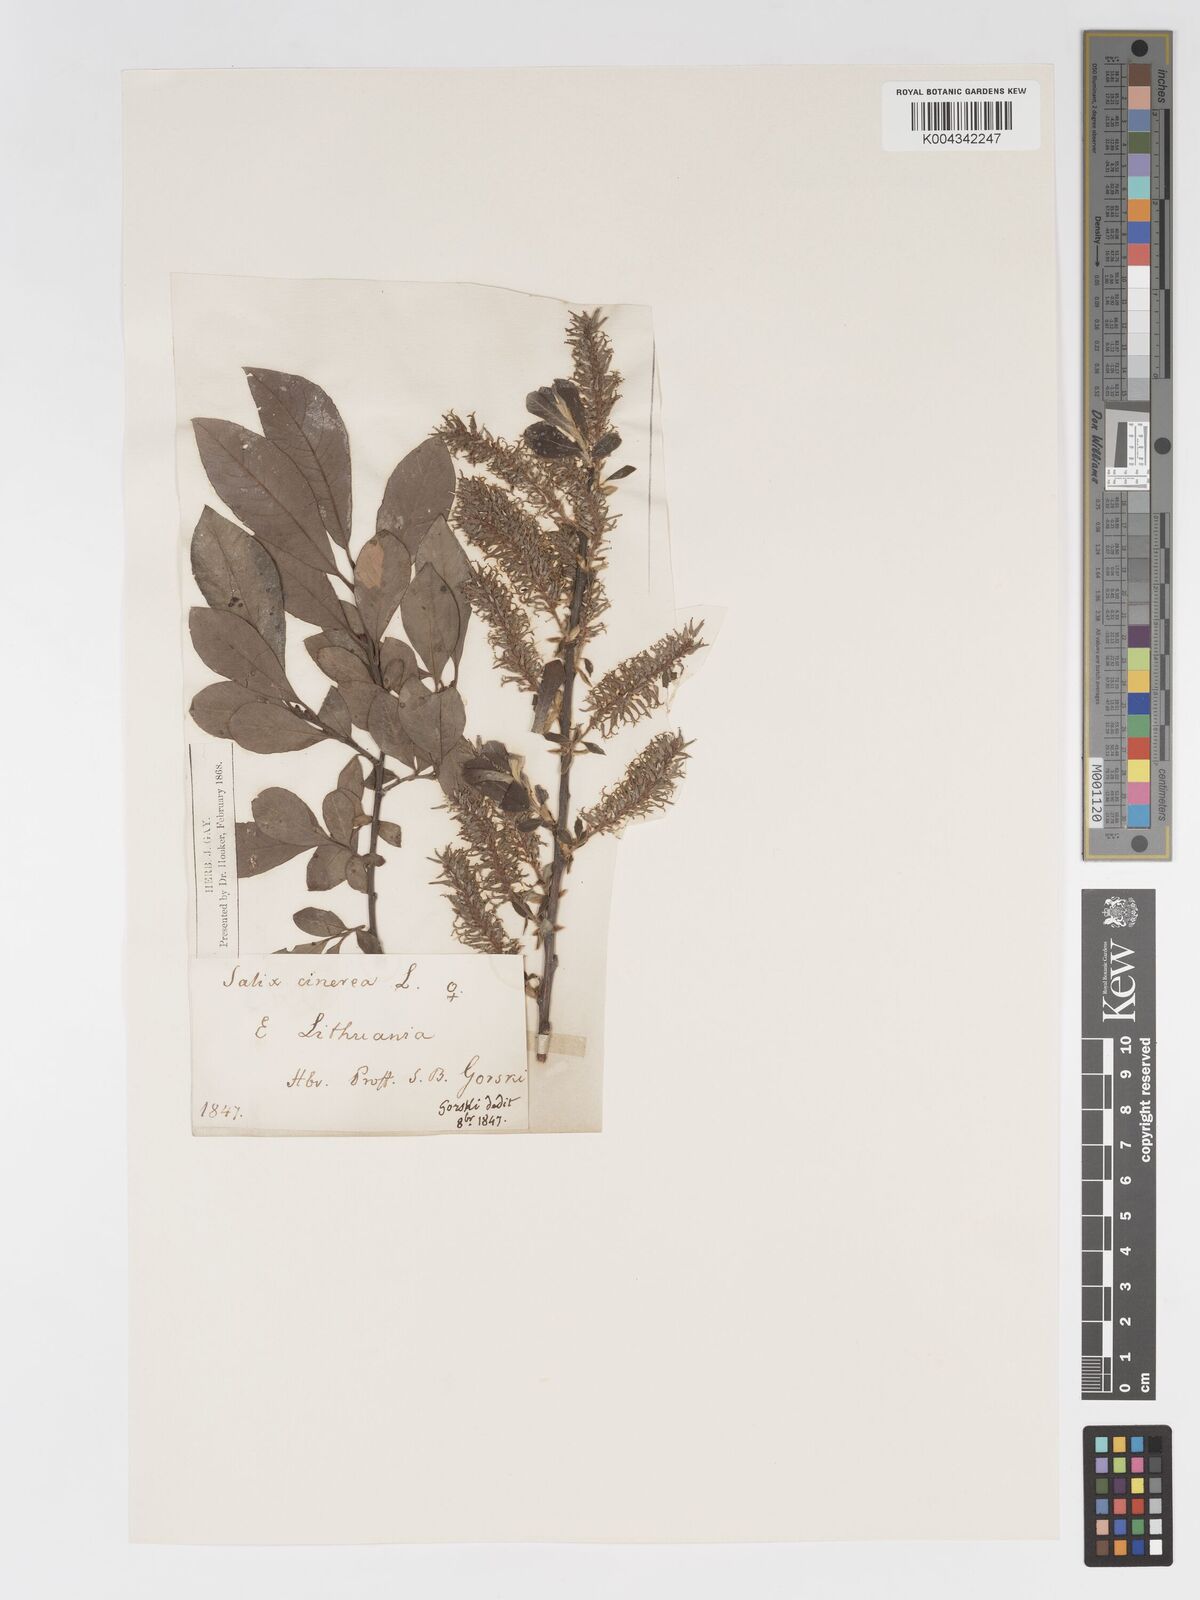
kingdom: Plantae
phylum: Tracheophyta
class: Magnoliopsida
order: Malpighiales
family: Salicaceae
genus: Salix
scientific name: Salix
